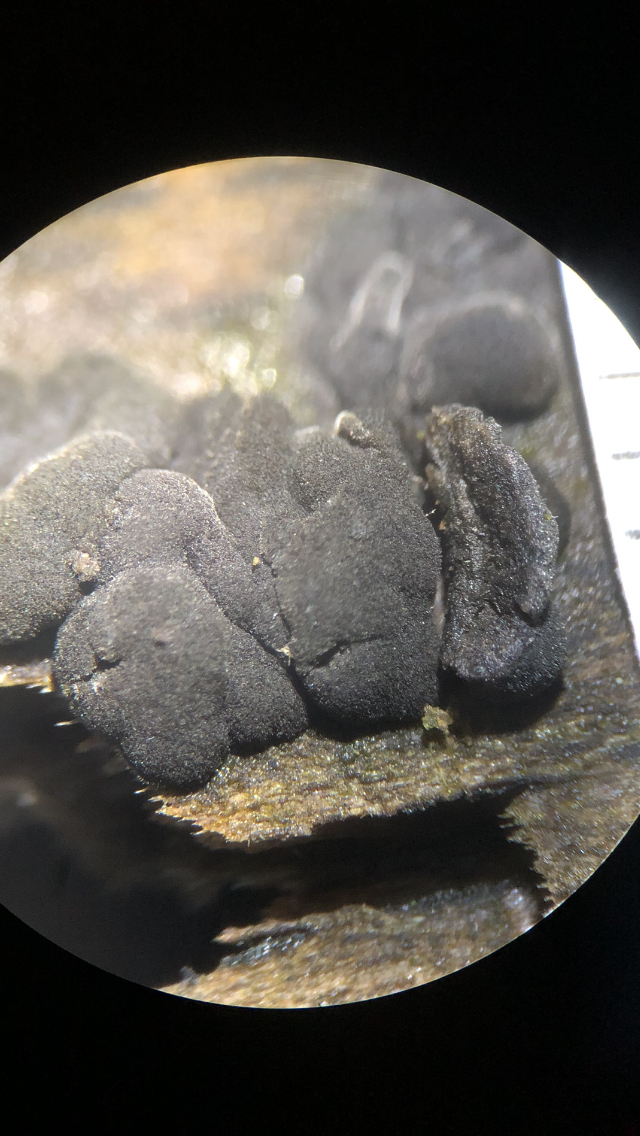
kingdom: Fungi
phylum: Ascomycota
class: Leotiomycetes
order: Helotiales
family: Helotiaceae
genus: Bulgariella
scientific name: Bulgariella pulla
